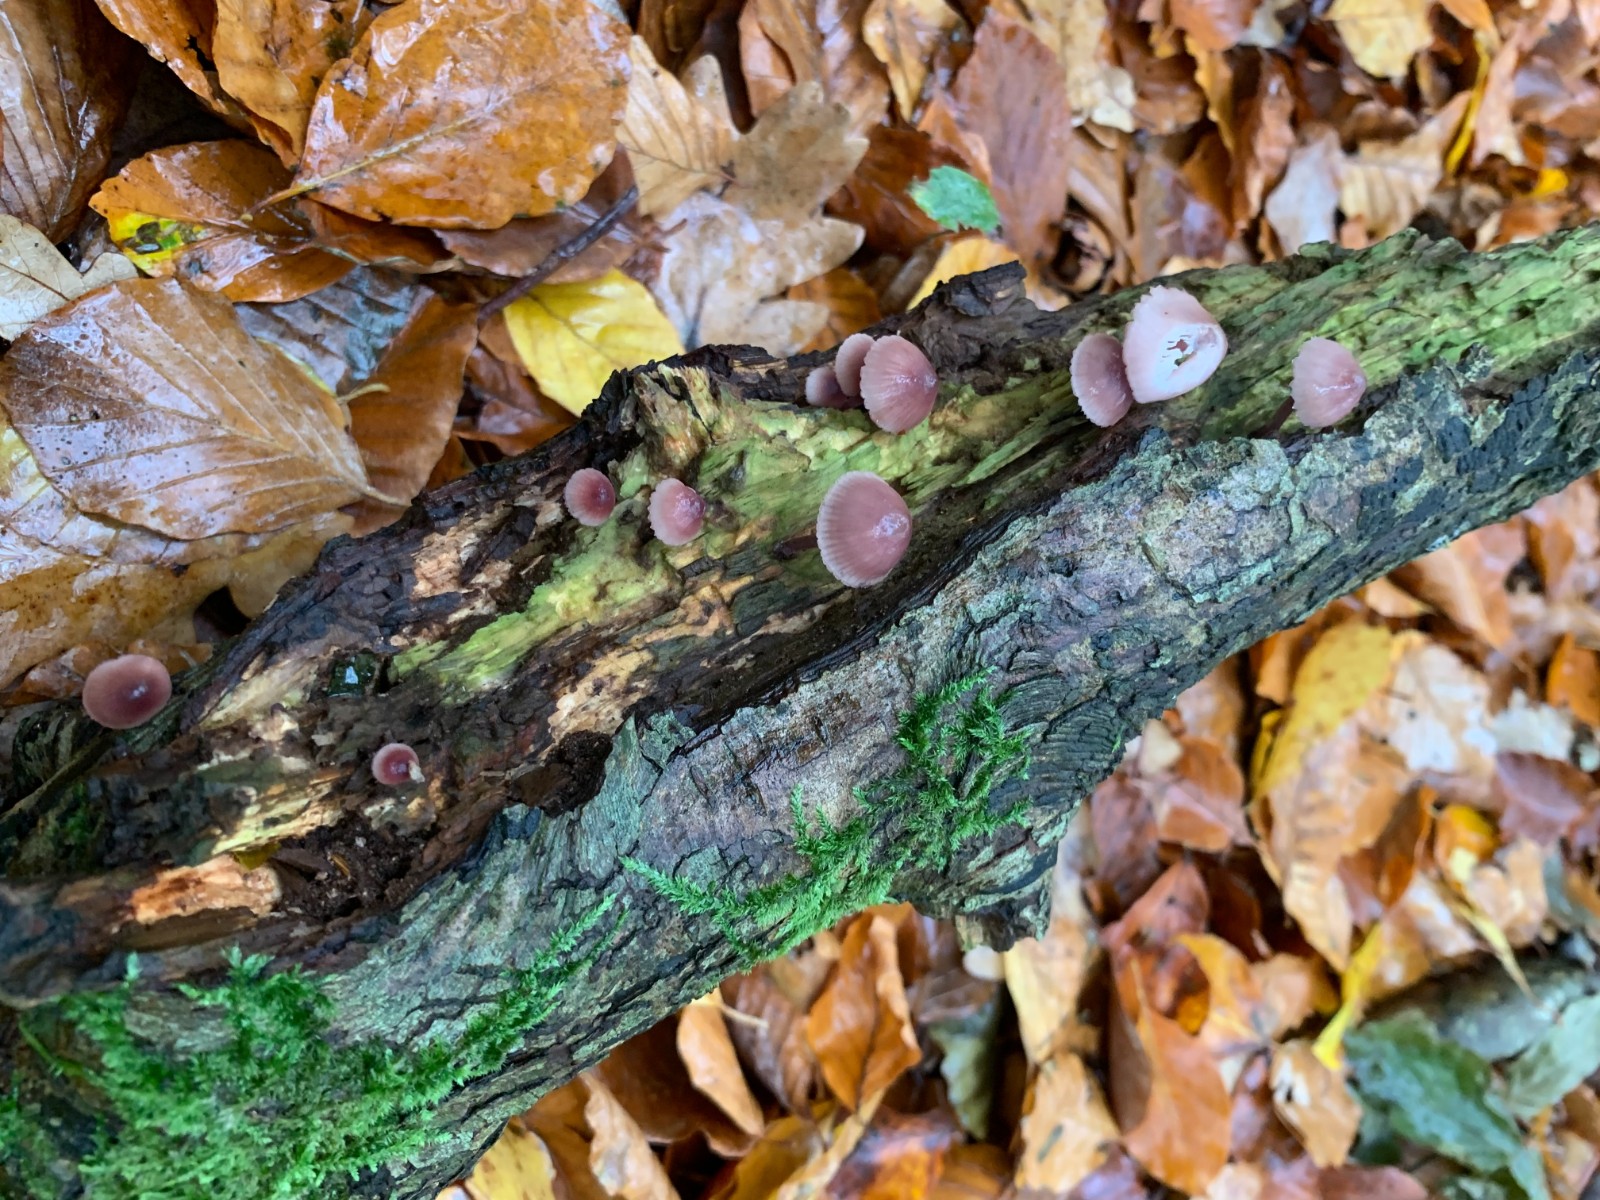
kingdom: Fungi
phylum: Basidiomycota
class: Agaricomycetes
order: Agaricales
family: Mycenaceae
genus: Mycena
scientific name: Mycena haematopus
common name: blødende huesvamp
